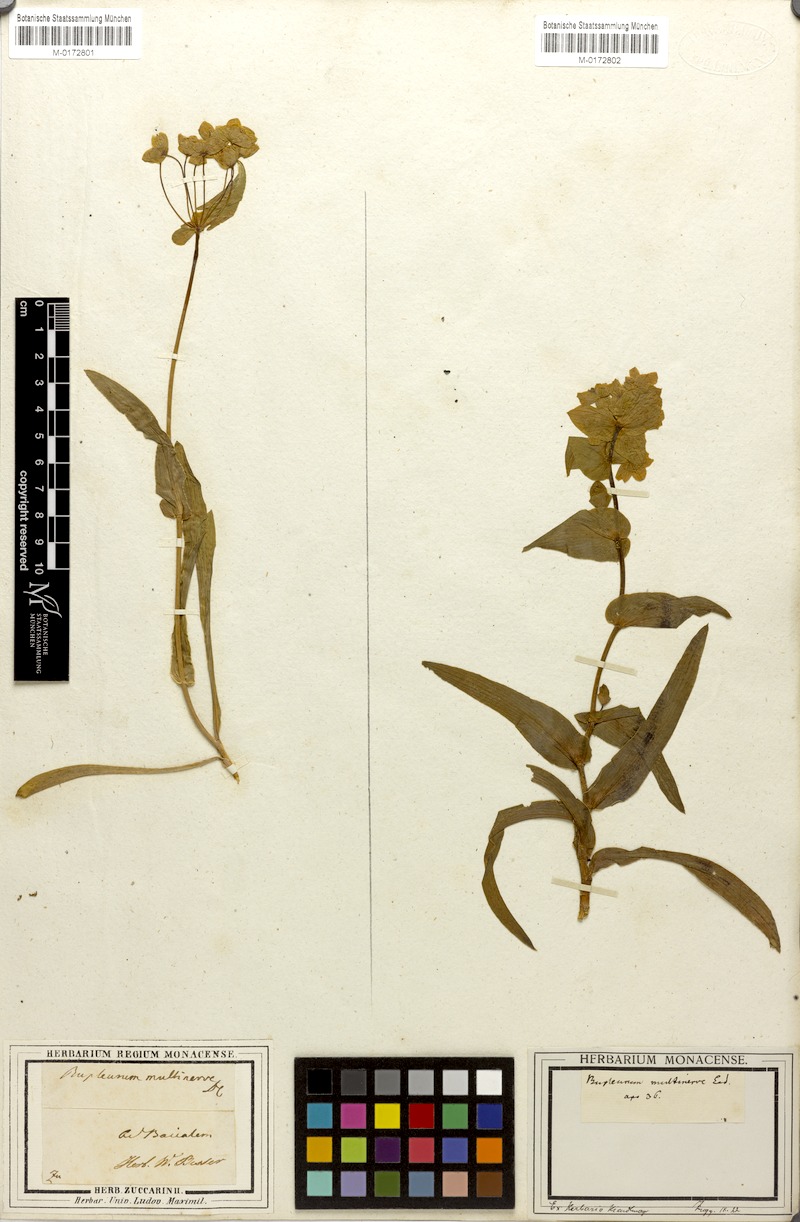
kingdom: Plantae
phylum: Tracheophyta
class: Magnoliopsida
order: Apiales
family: Apiaceae
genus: Bupleurum
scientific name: Bupleurum multinerve
